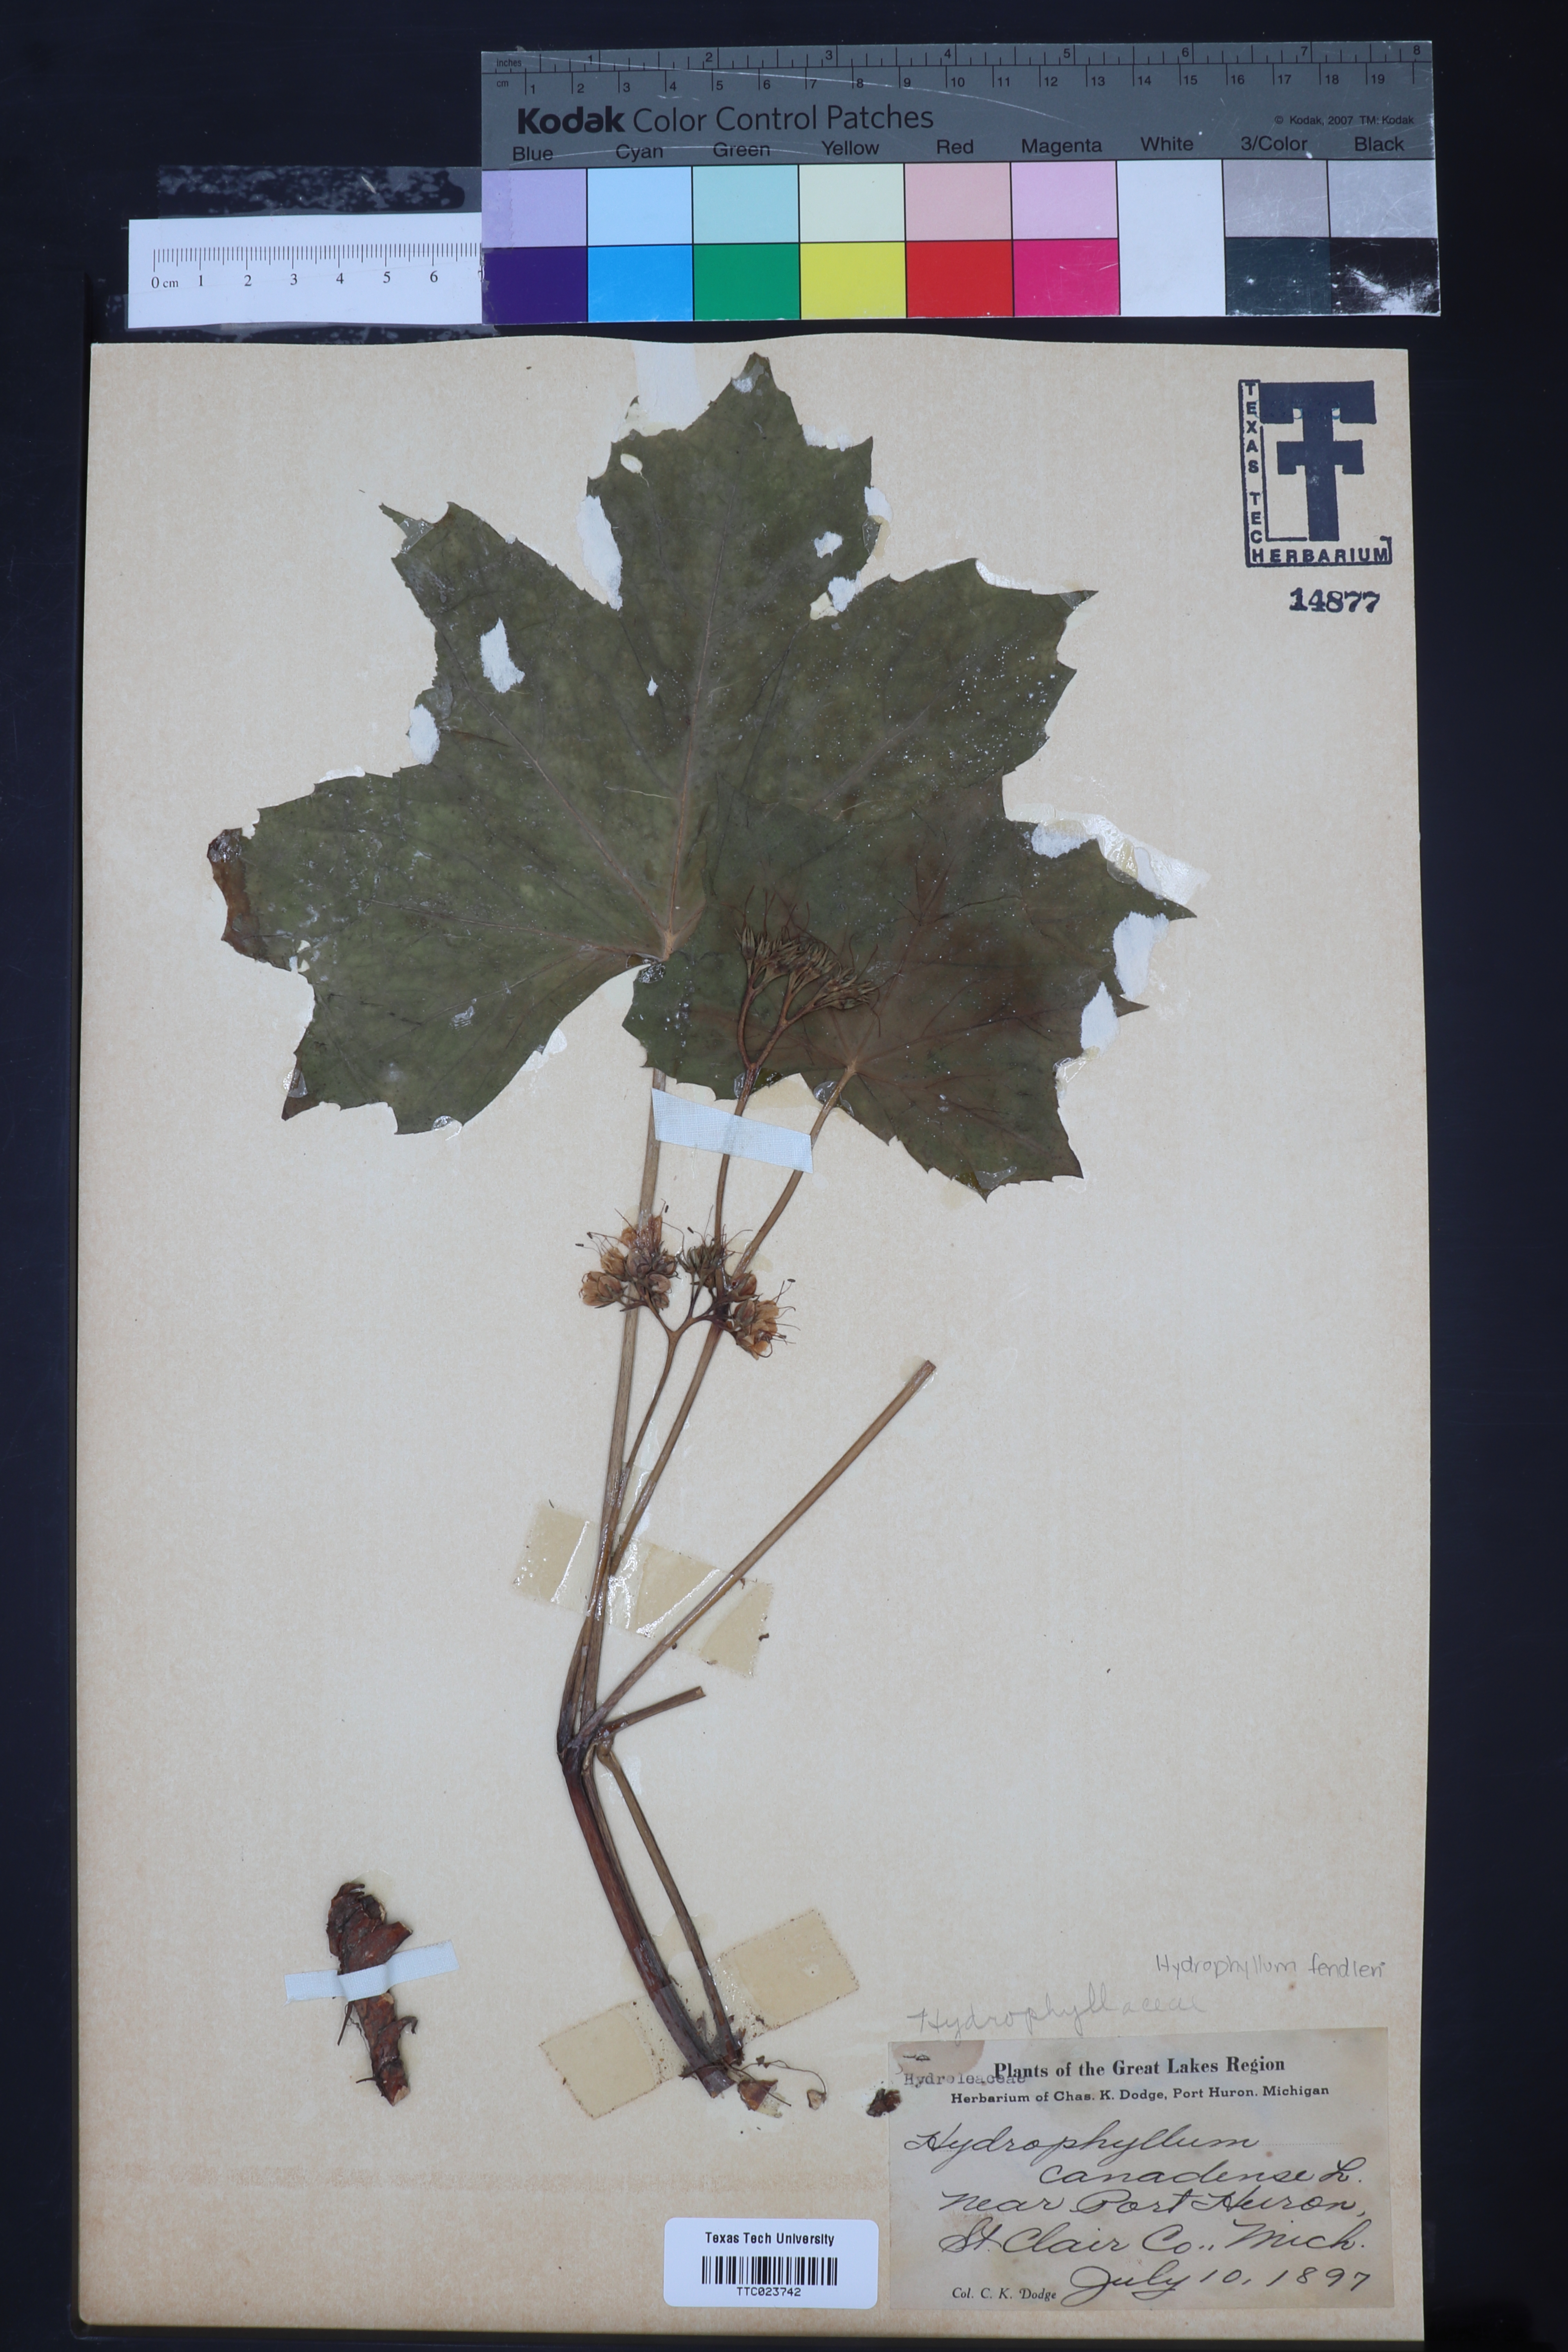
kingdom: Plantae
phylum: Tracheophyta
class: Magnoliopsida
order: Boraginales
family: Hydrophyllaceae
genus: Hydrophyllum
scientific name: Hydrophyllum fendleri
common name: Fendler's waterleaf
